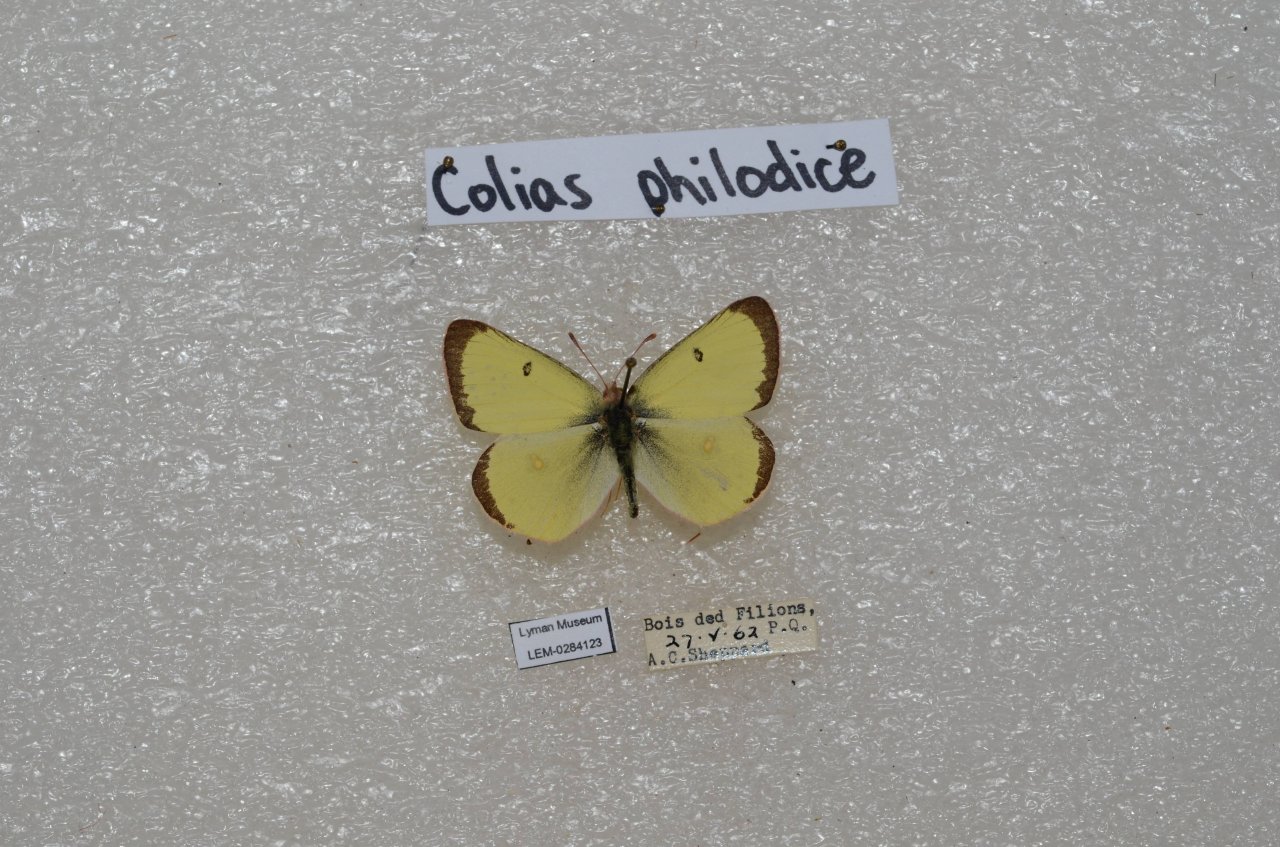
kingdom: Animalia
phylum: Arthropoda
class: Insecta
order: Lepidoptera
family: Pieridae
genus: Colias
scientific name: Colias philodice
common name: Clouded Sulphur
